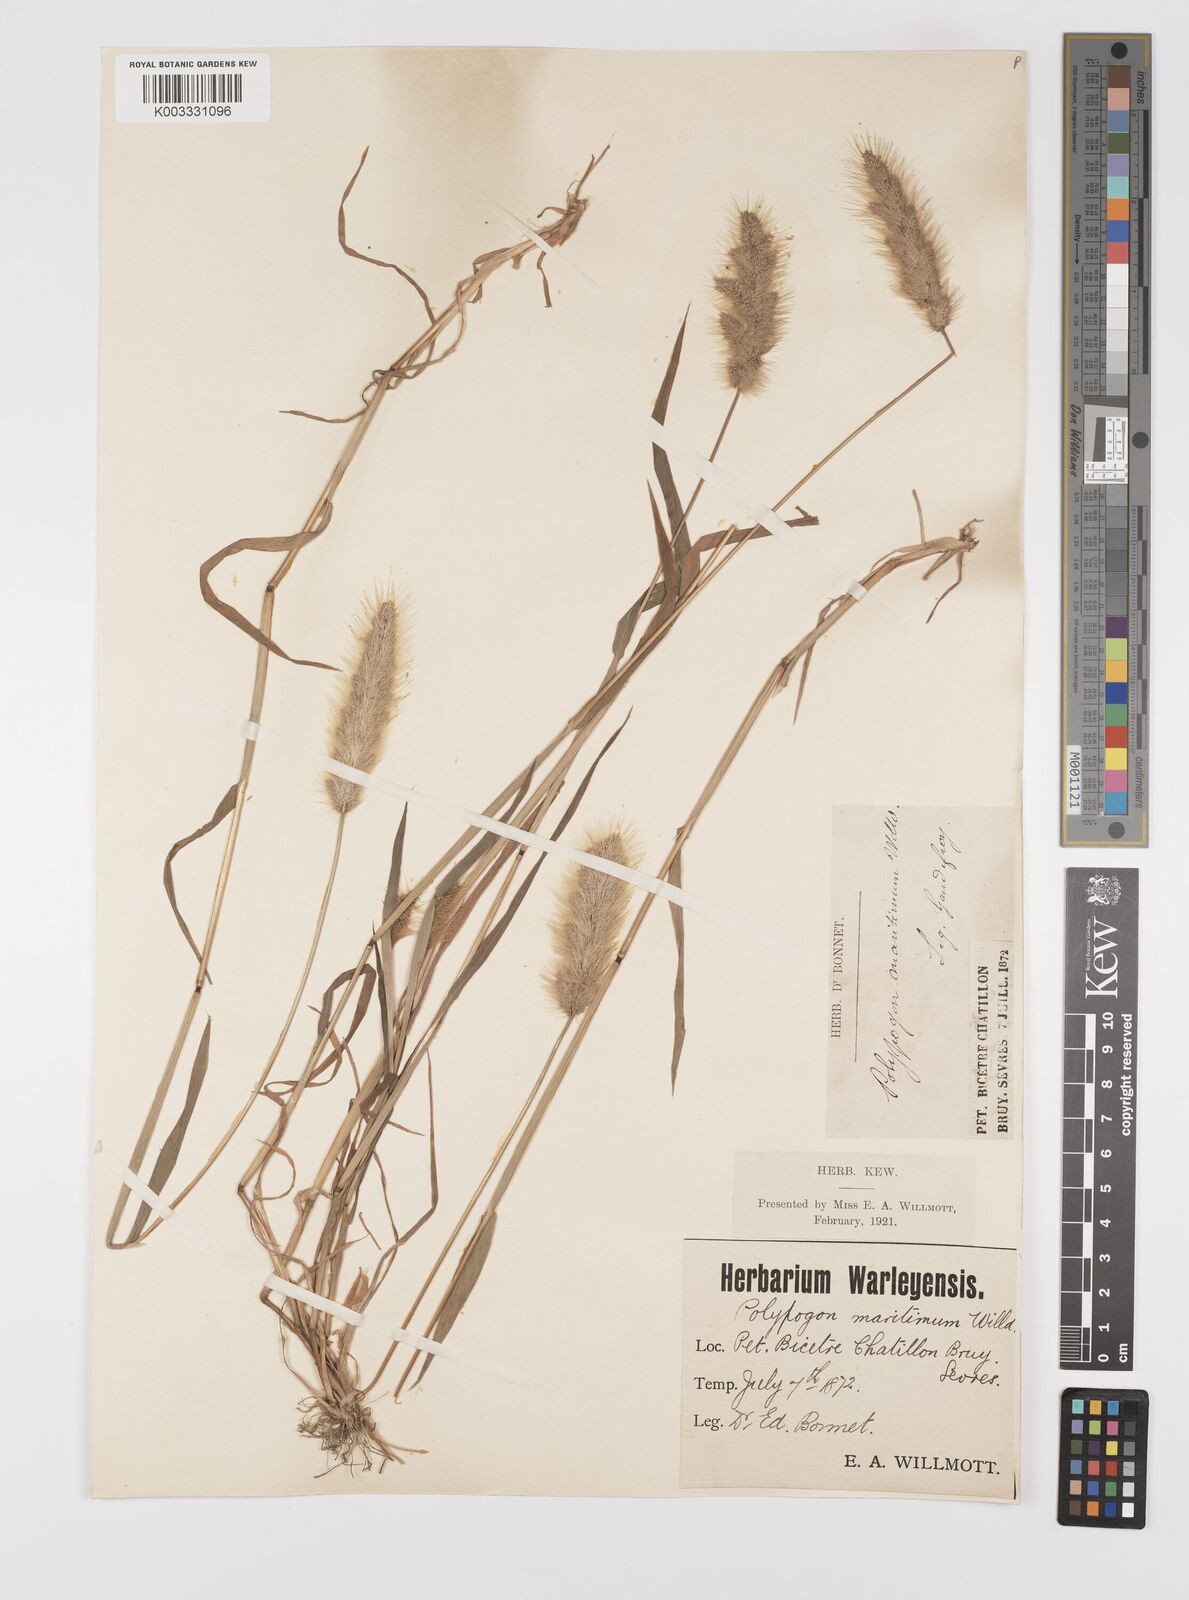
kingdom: Plantae
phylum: Tracheophyta
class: Liliopsida
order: Poales
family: Poaceae
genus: Polypogon
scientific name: Polypogon monspeliensis
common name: Annual rabbitsfoot grass
